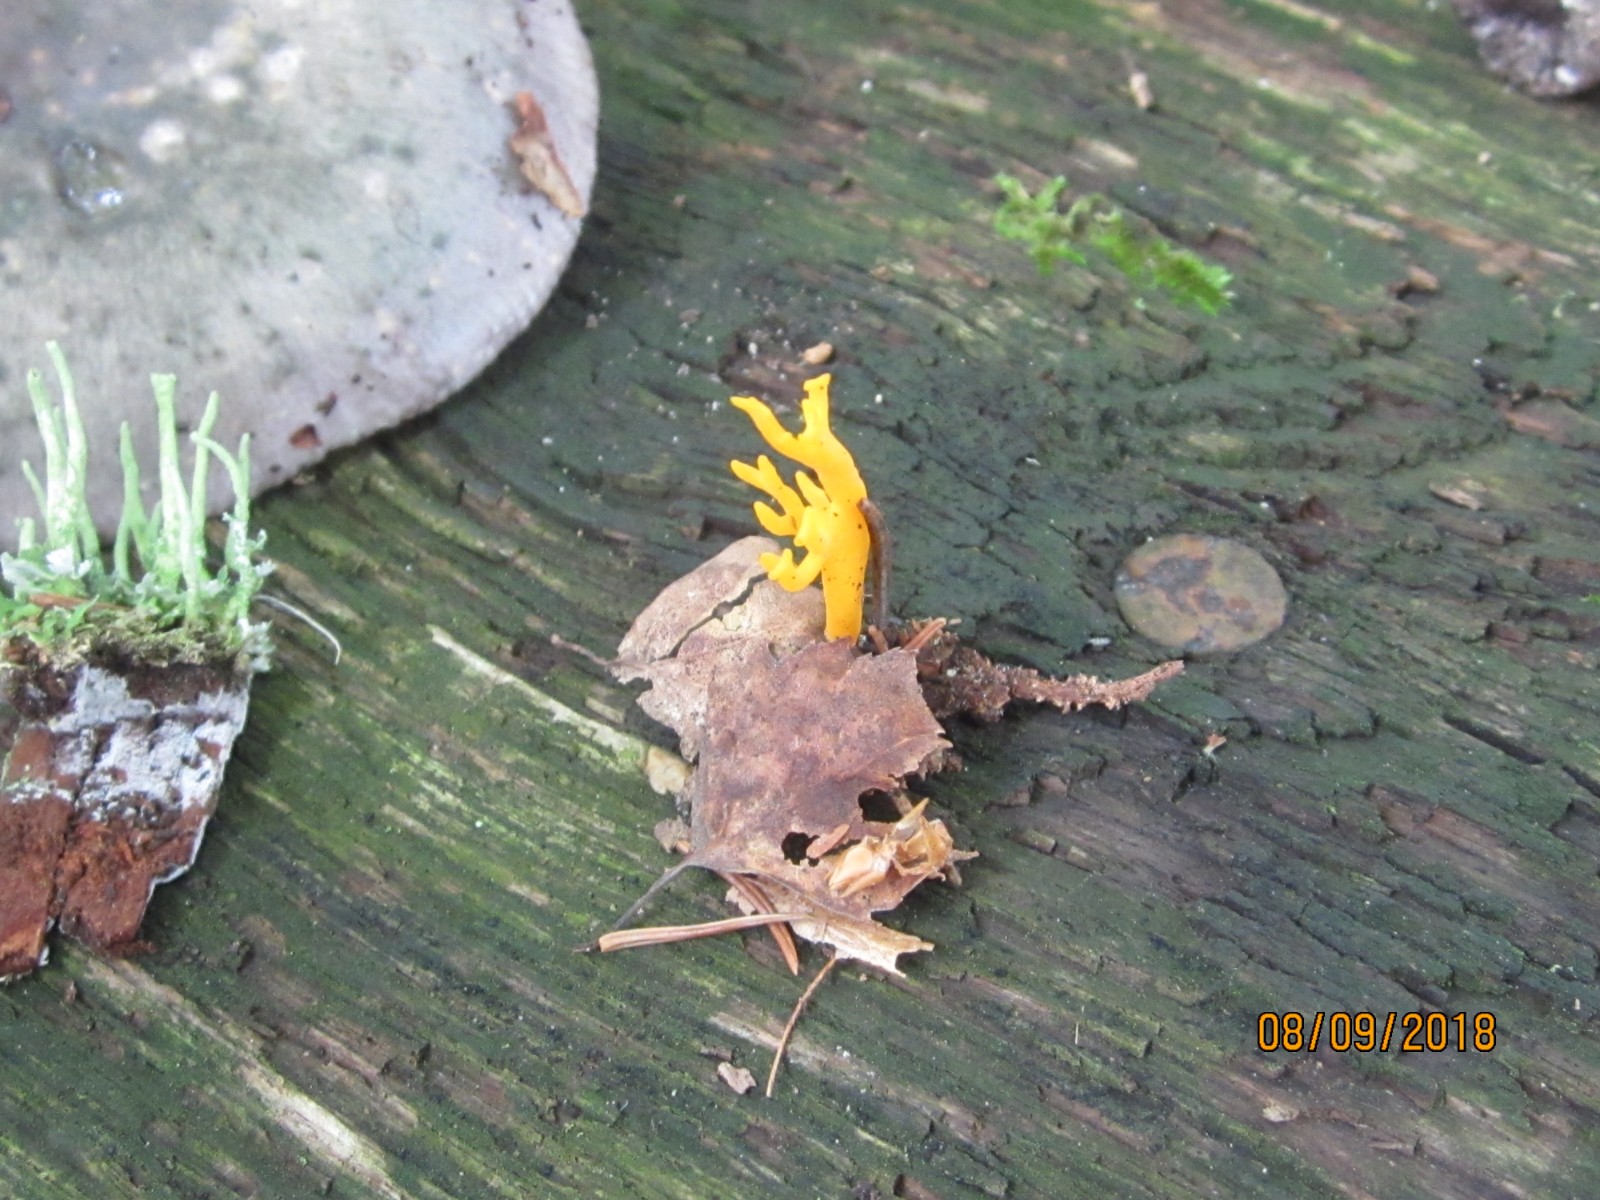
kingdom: Fungi
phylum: Basidiomycota
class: Dacrymycetes
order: Dacrymycetales
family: Dacrymycetaceae
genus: Calocera
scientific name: Calocera viscosa
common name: almindelig guldgaffel
